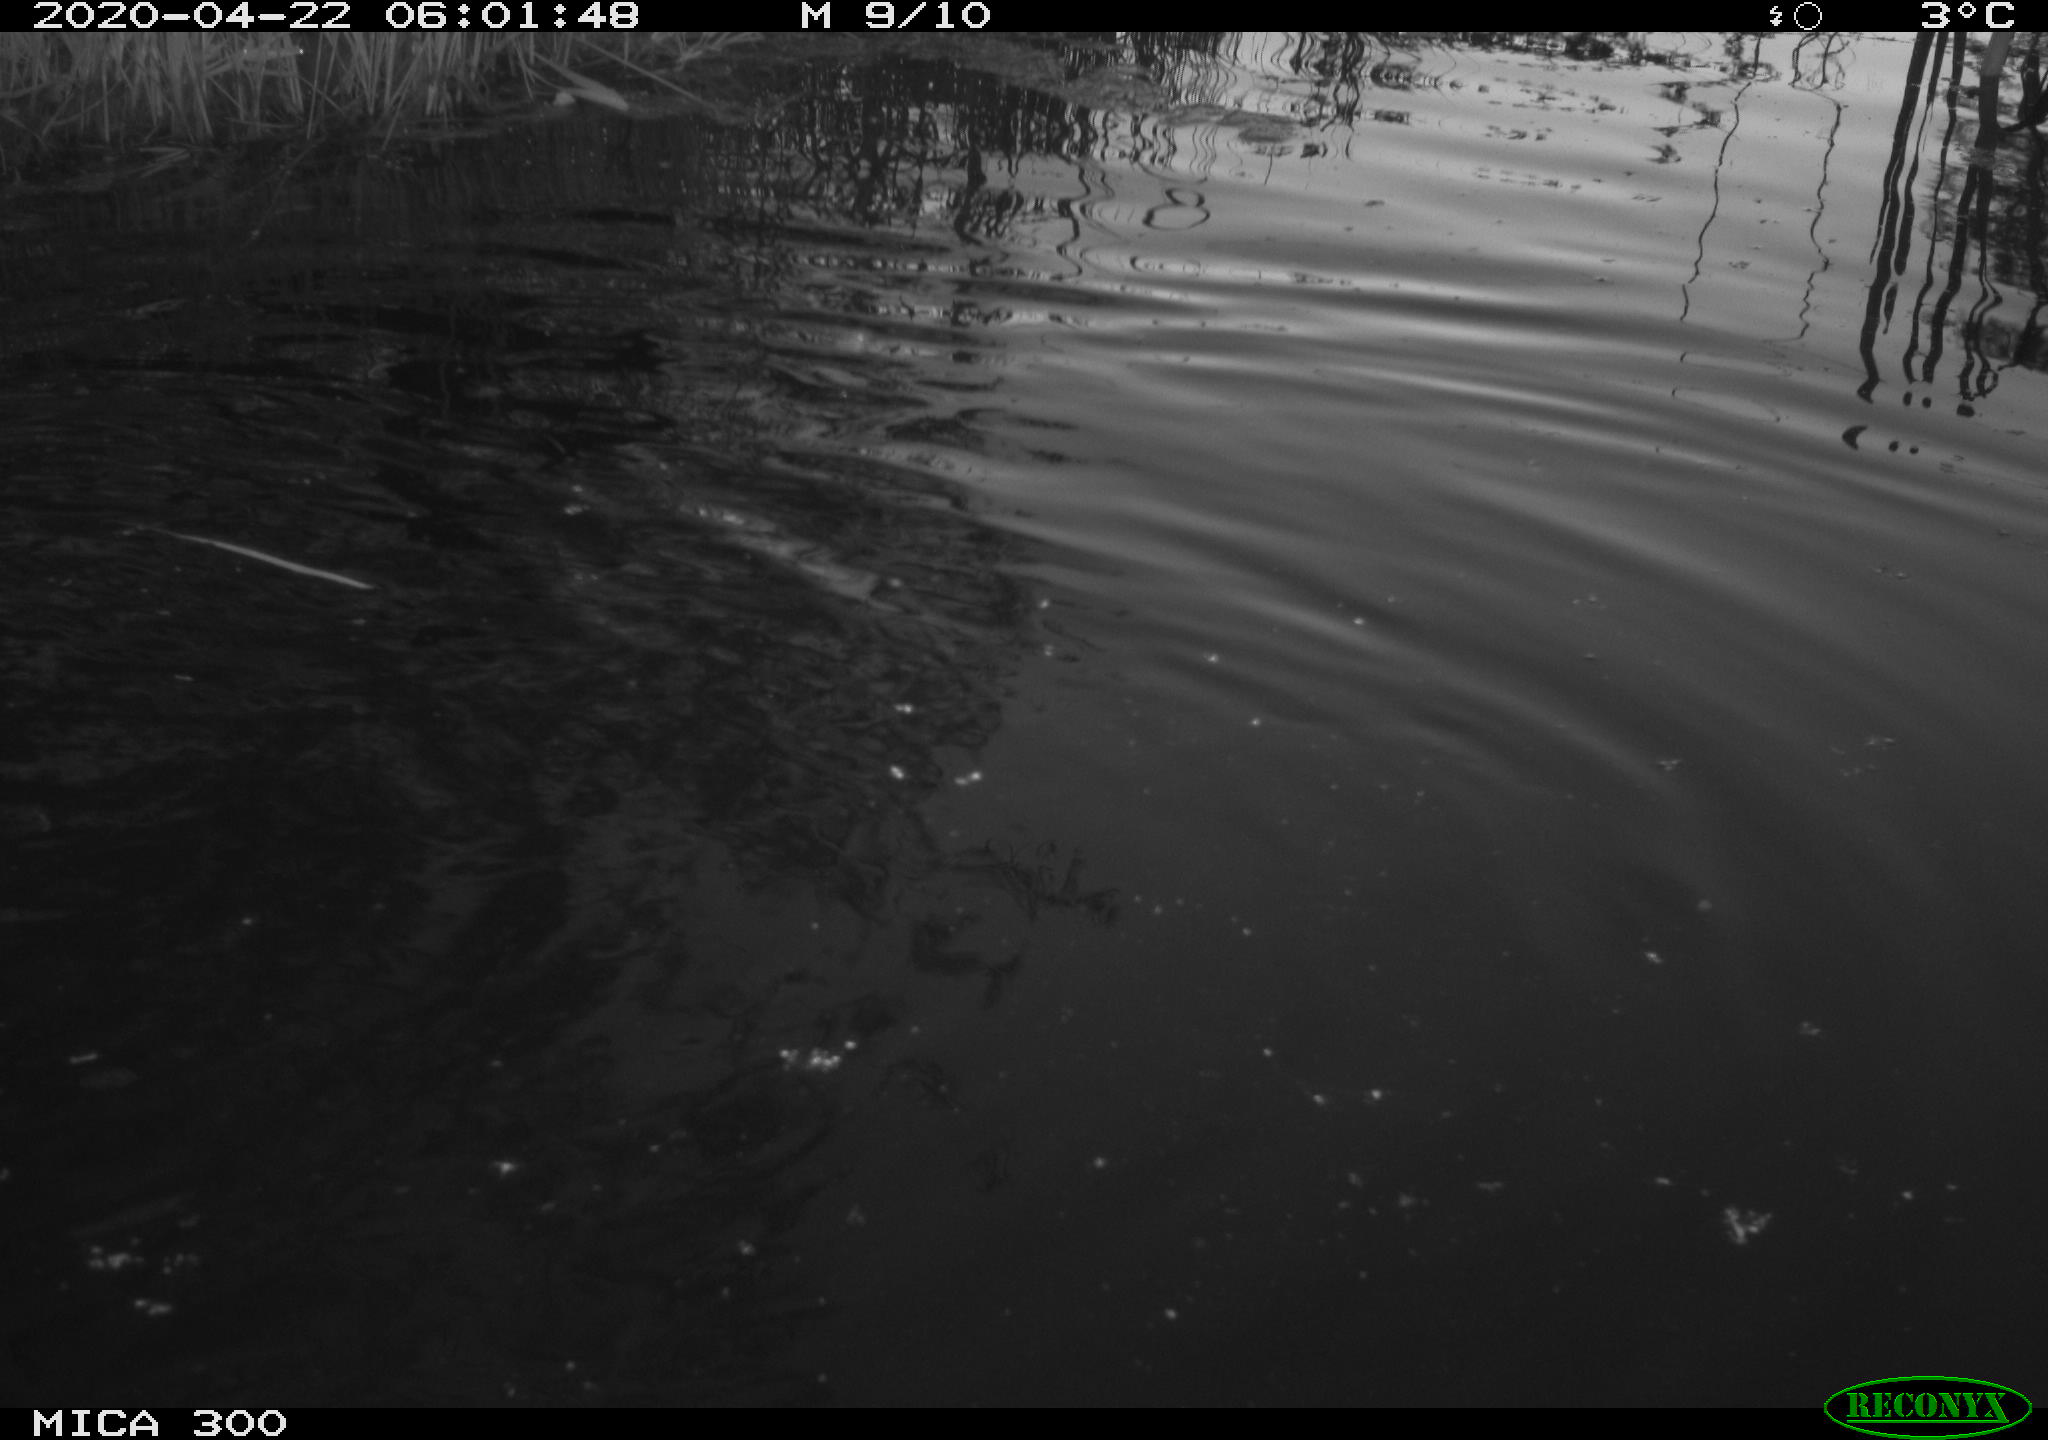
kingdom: Animalia
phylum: Chordata
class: Aves
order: Anseriformes
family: Anatidae
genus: Anas
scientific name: Anas platyrhynchos
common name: Mallard
